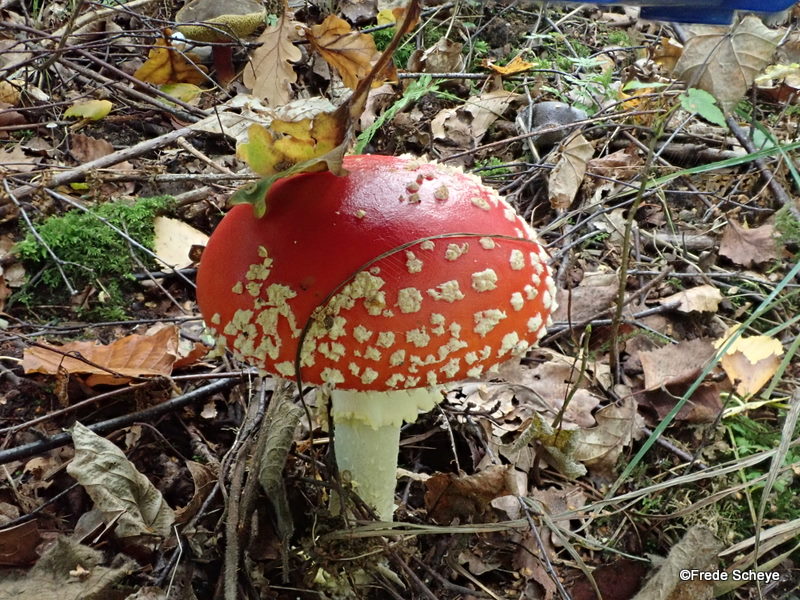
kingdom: Fungi
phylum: Basidiomycota
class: Agaricomycetes
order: Agaricales
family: Amanitaceae
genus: Amanita
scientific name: Amanita muscaria
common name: rød fluesvamp
